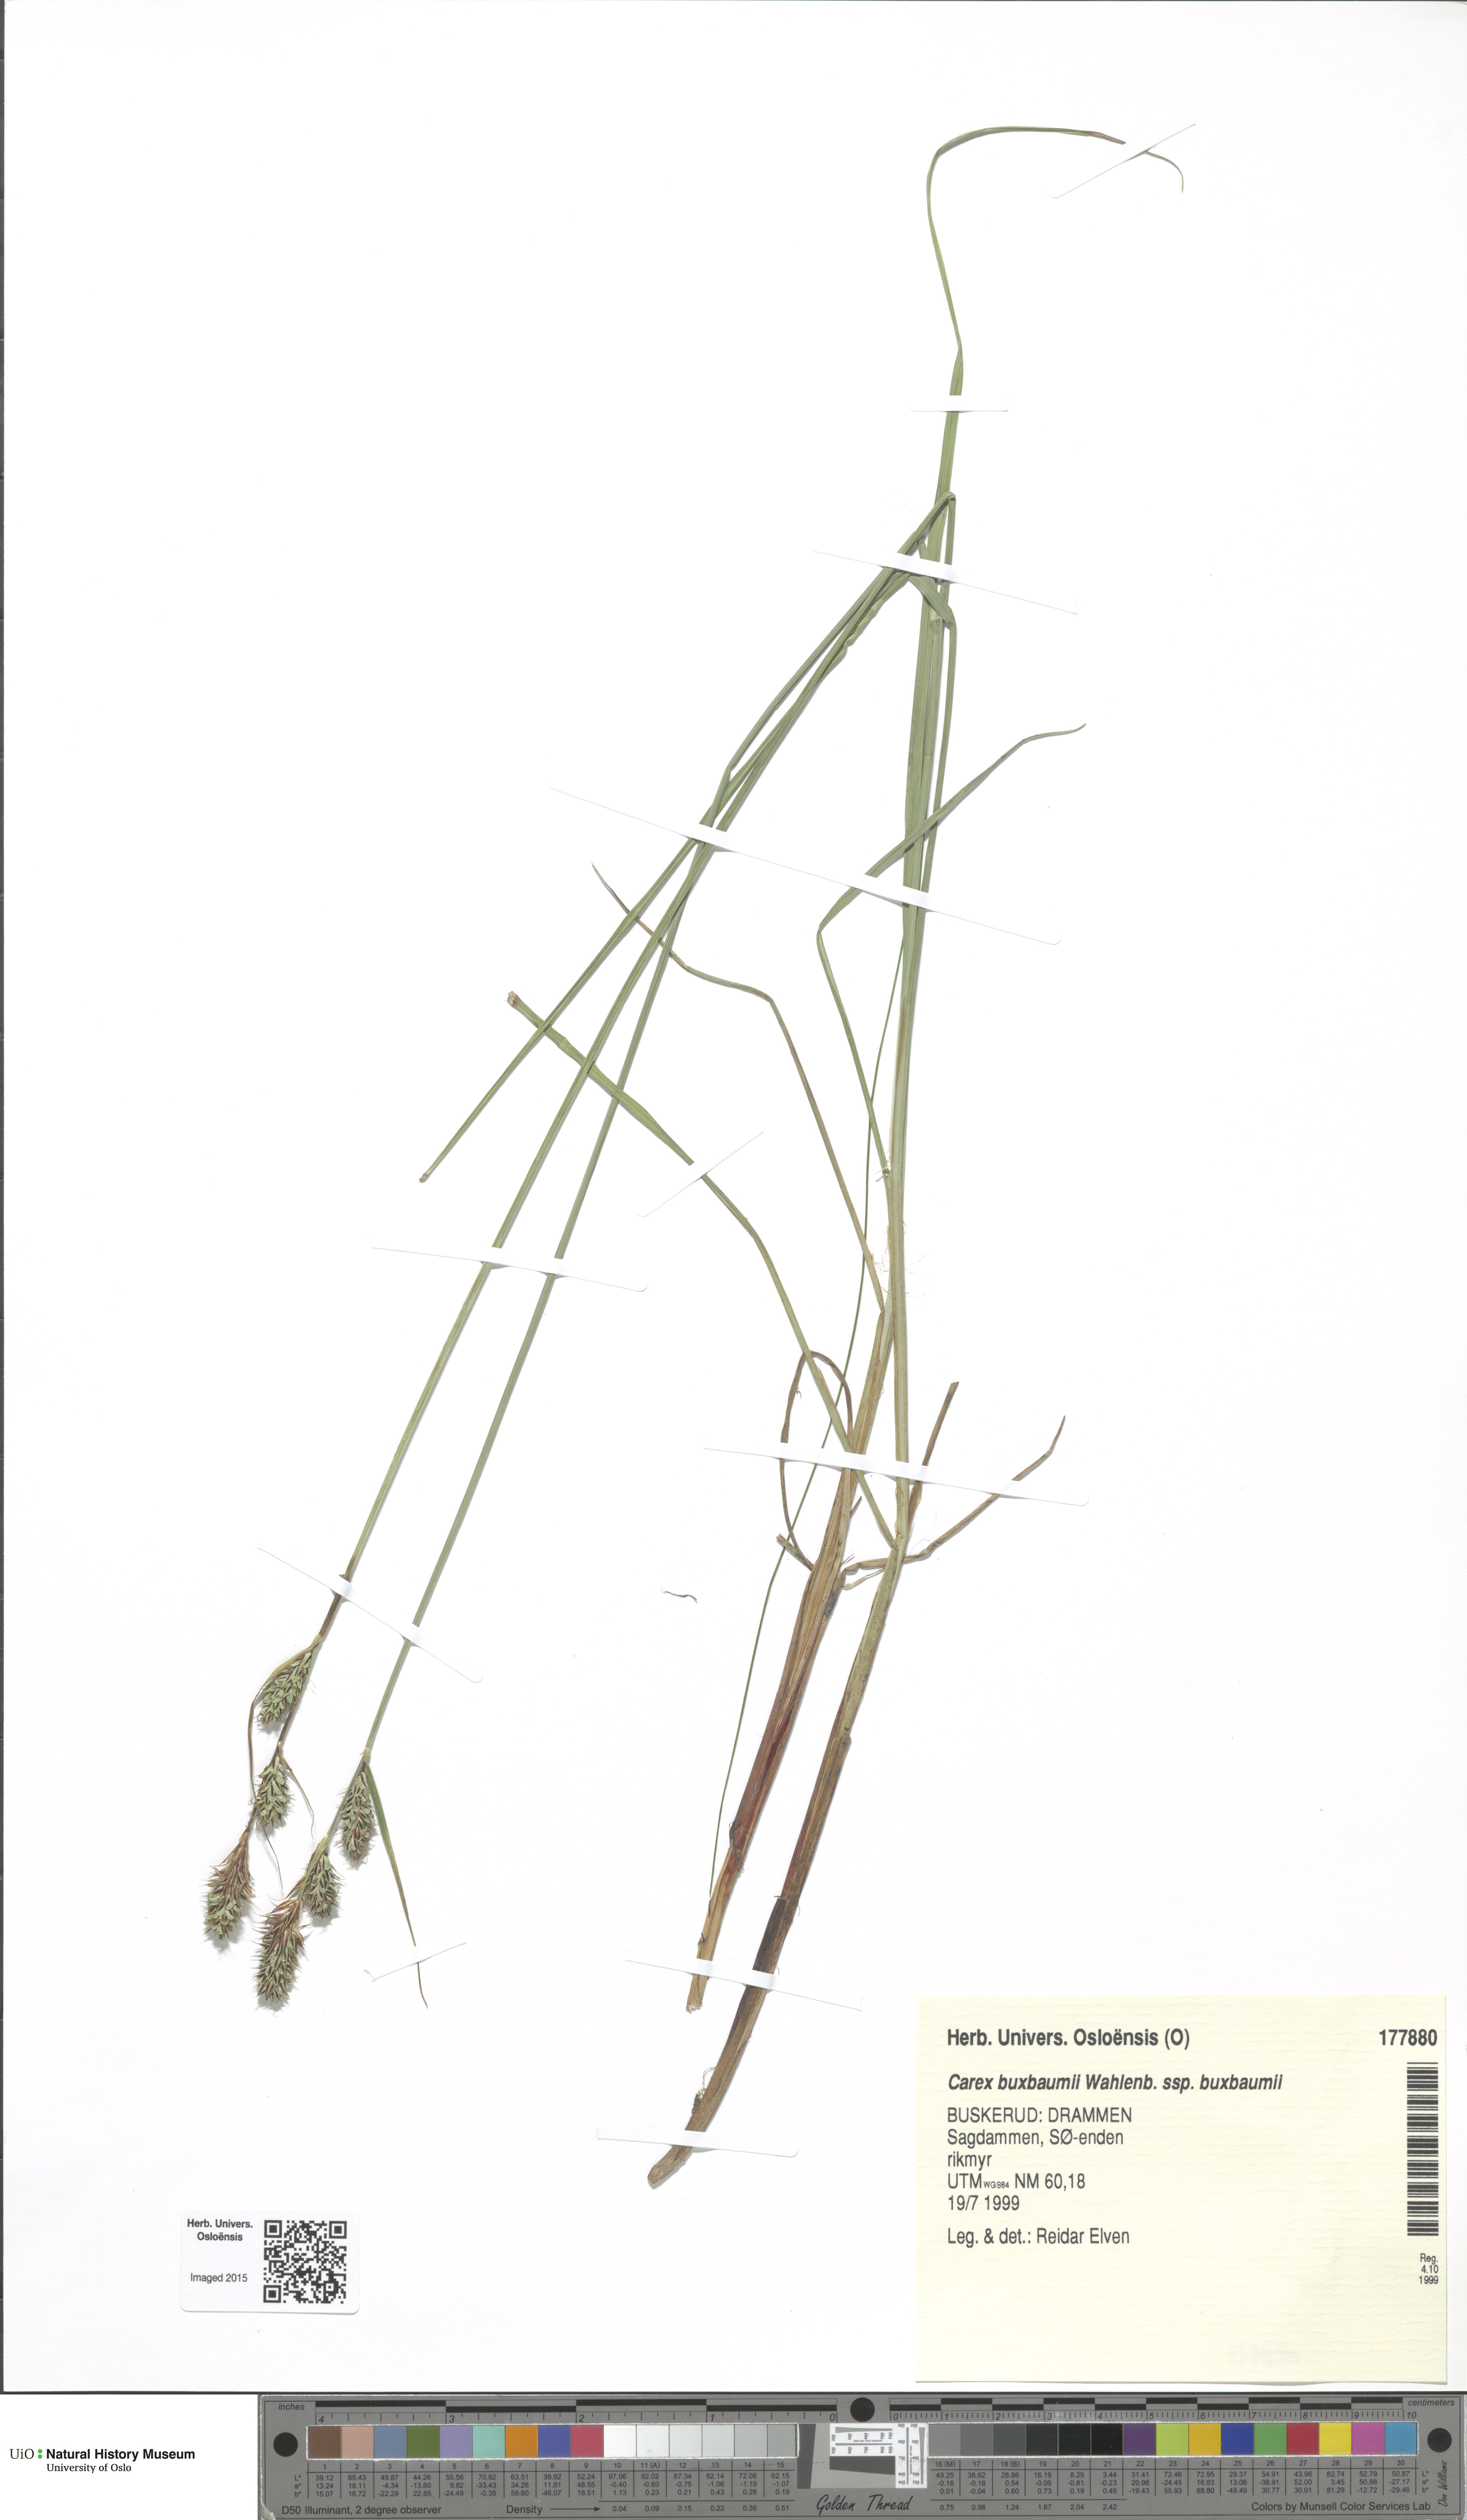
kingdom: Plantae
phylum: Tracheophyta
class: Liliopsida
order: Poales
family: Cyperaceae
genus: Carex
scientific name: Carex buxbaumii
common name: Club sedge
